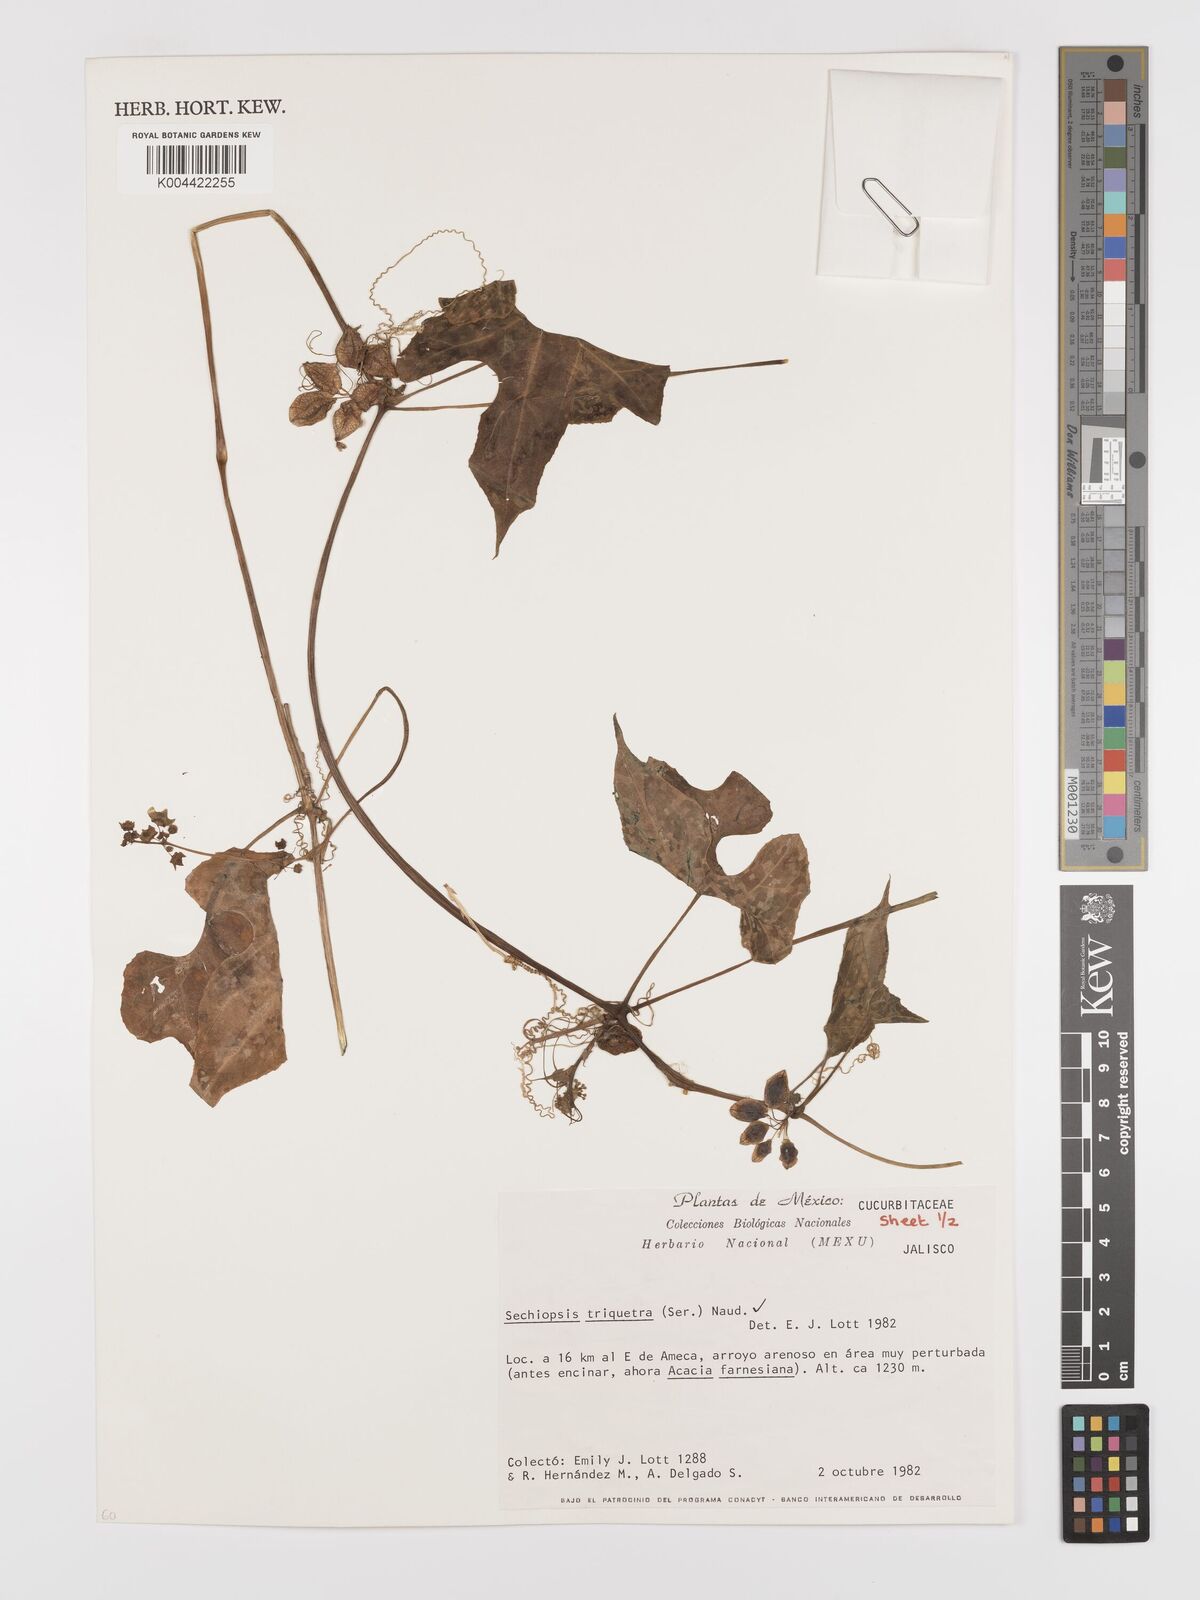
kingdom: Plantae
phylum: Tracheophyta
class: Magnoliopsida
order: Cucurbitales
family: Cucurbitaceae
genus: Sechiopsis
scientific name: Sechiopsis triqueter
